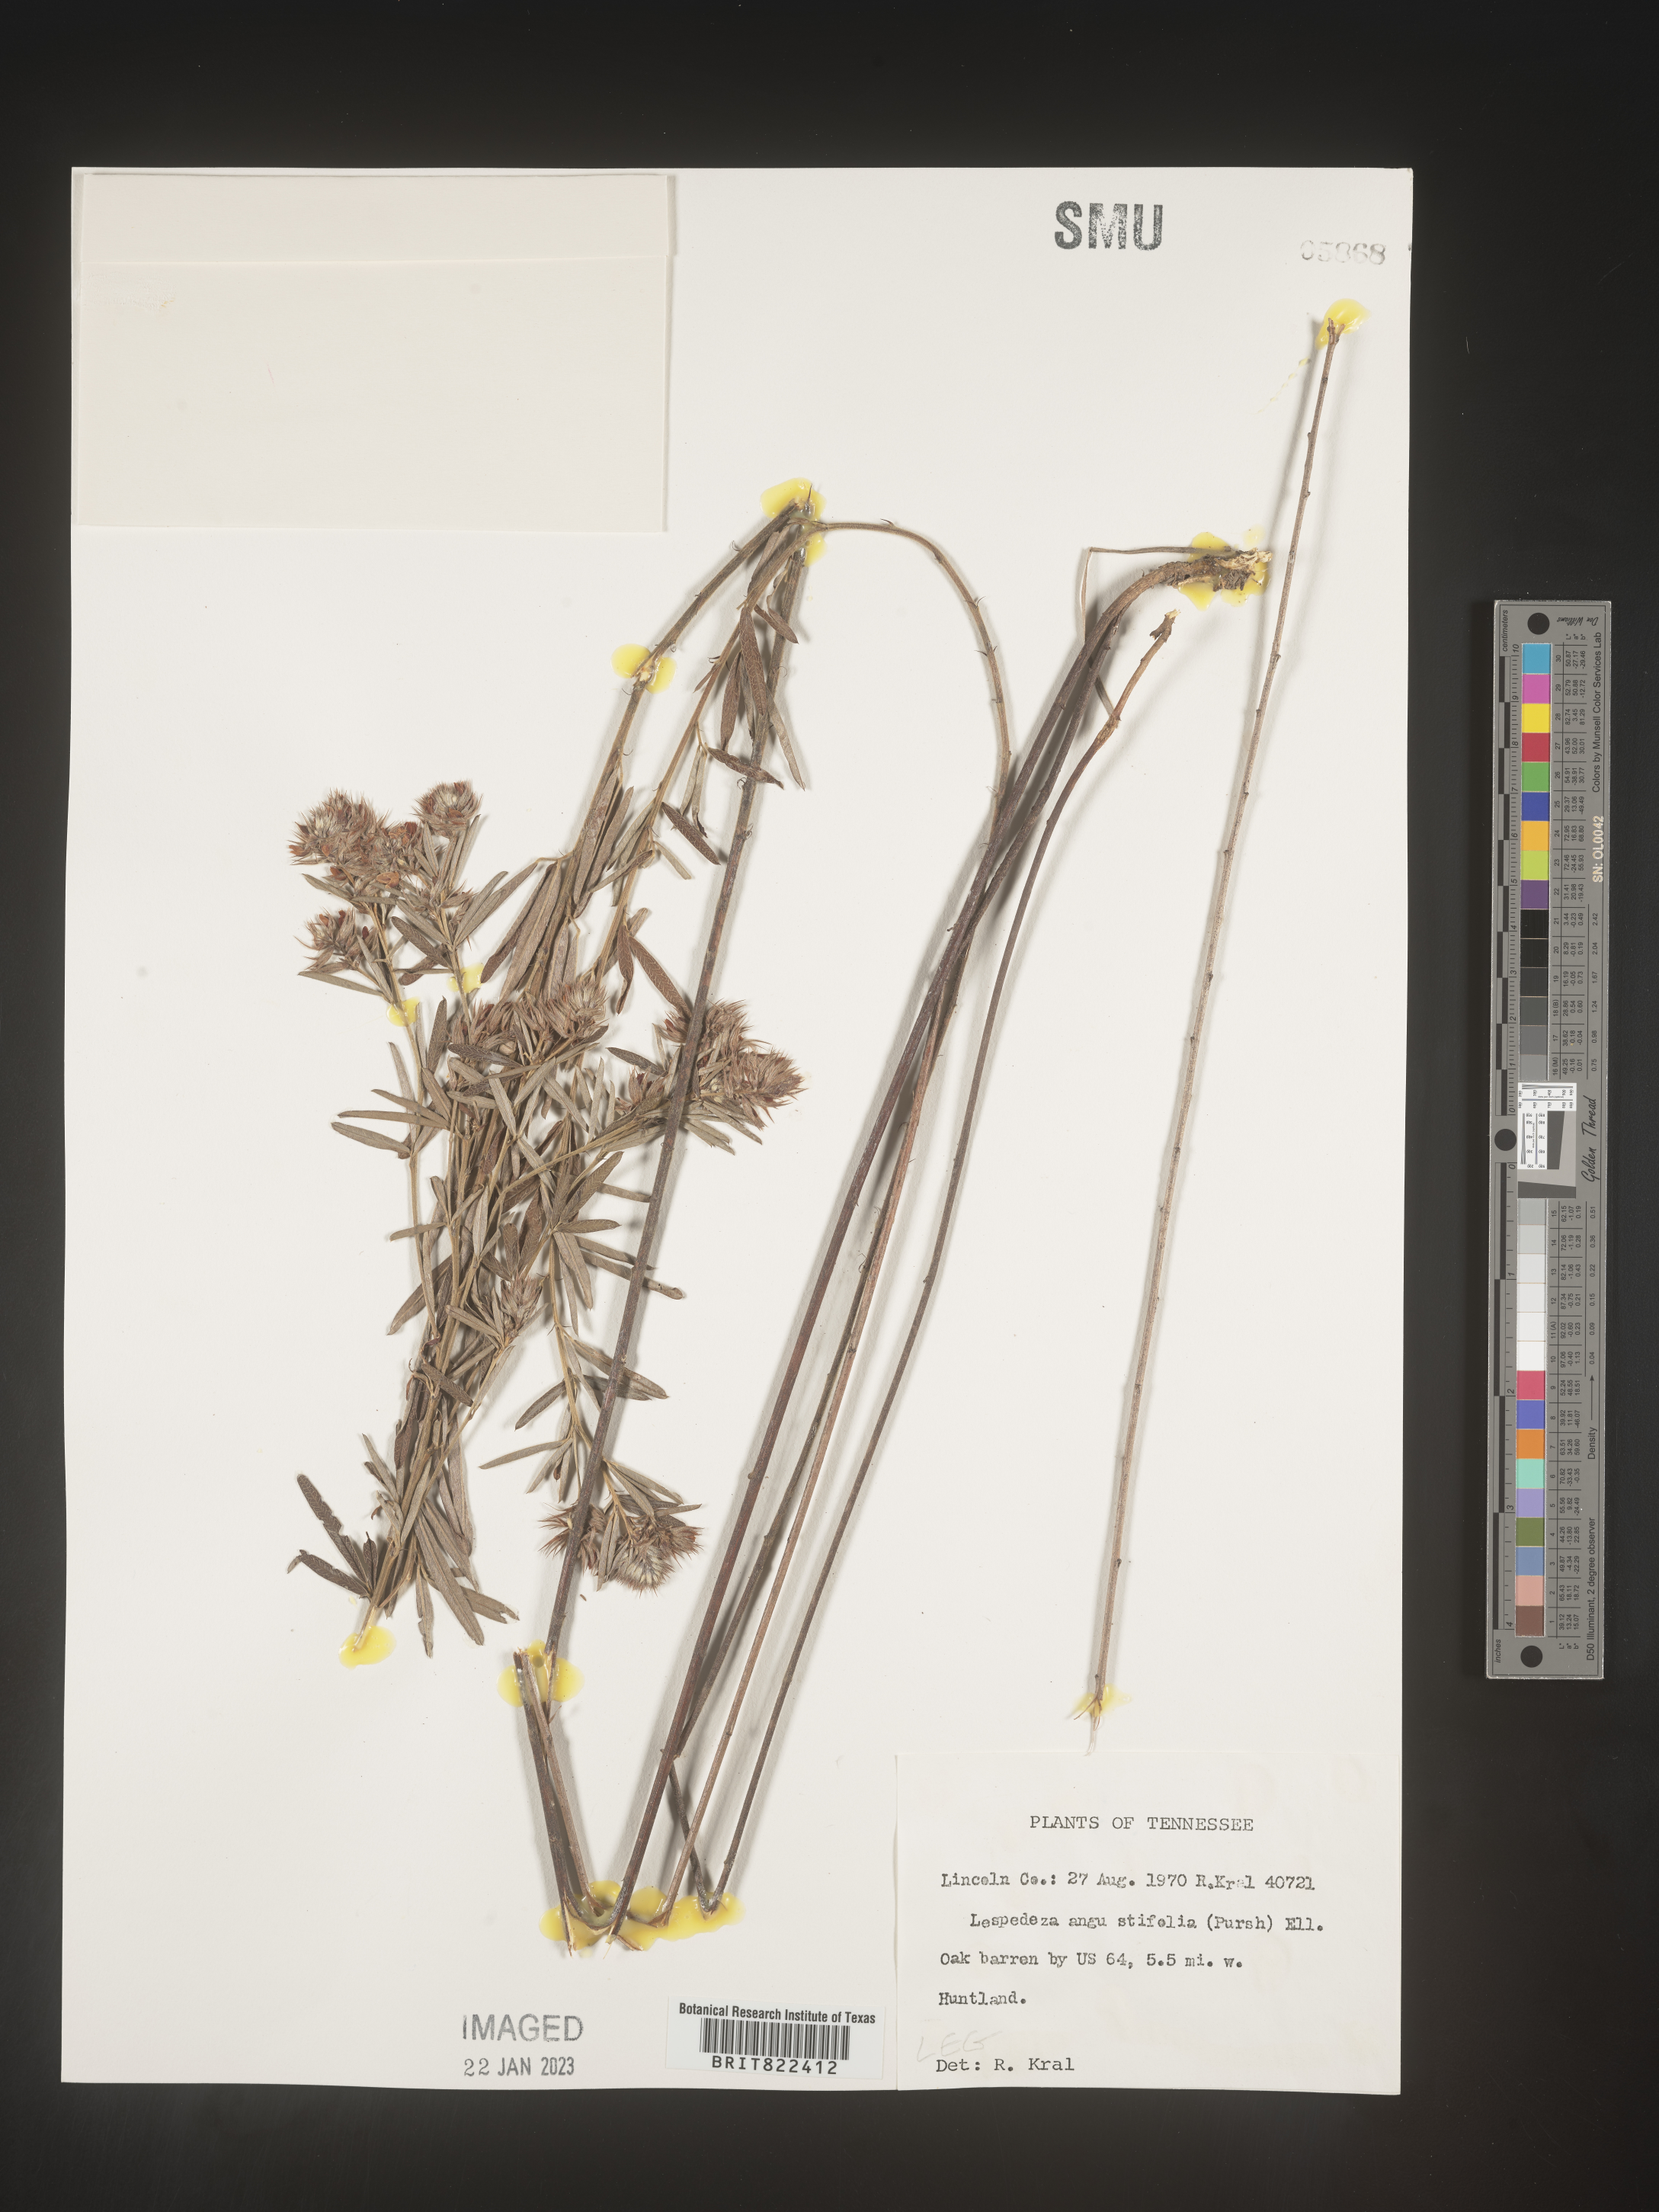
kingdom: Plantae
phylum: Tracheophyta
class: Magnoliopsida
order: Fabales
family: Fabaceae
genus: Lespedeza
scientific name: Lespedeza
